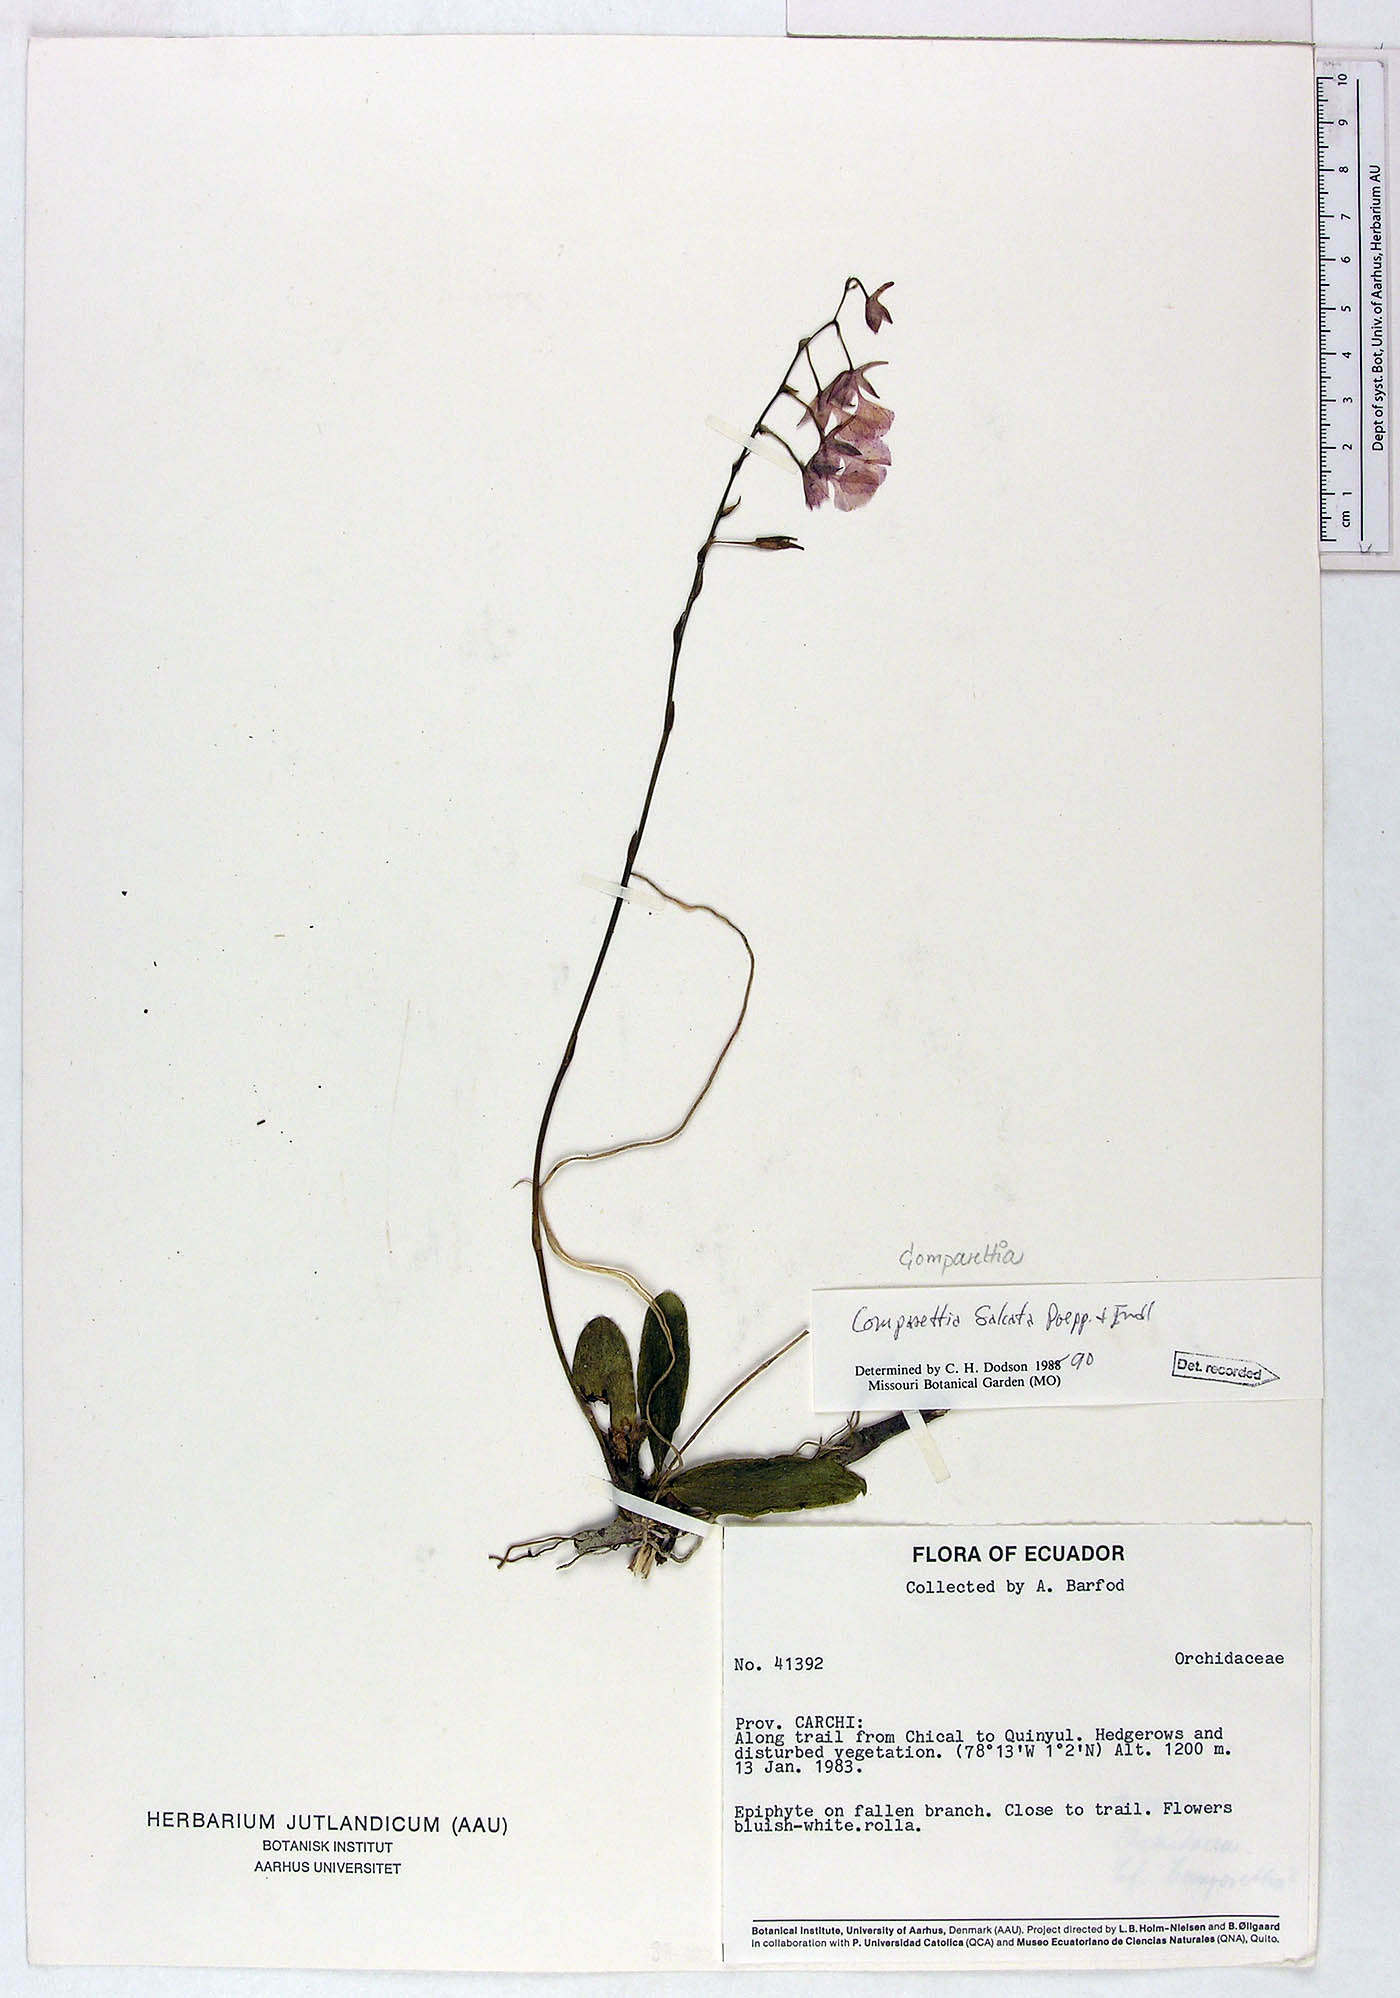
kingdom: Plantae
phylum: Tracheophyta
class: Liliopsida
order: Asparagales
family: Orchidaceae
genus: Comparettia
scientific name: Comparettia falcata
